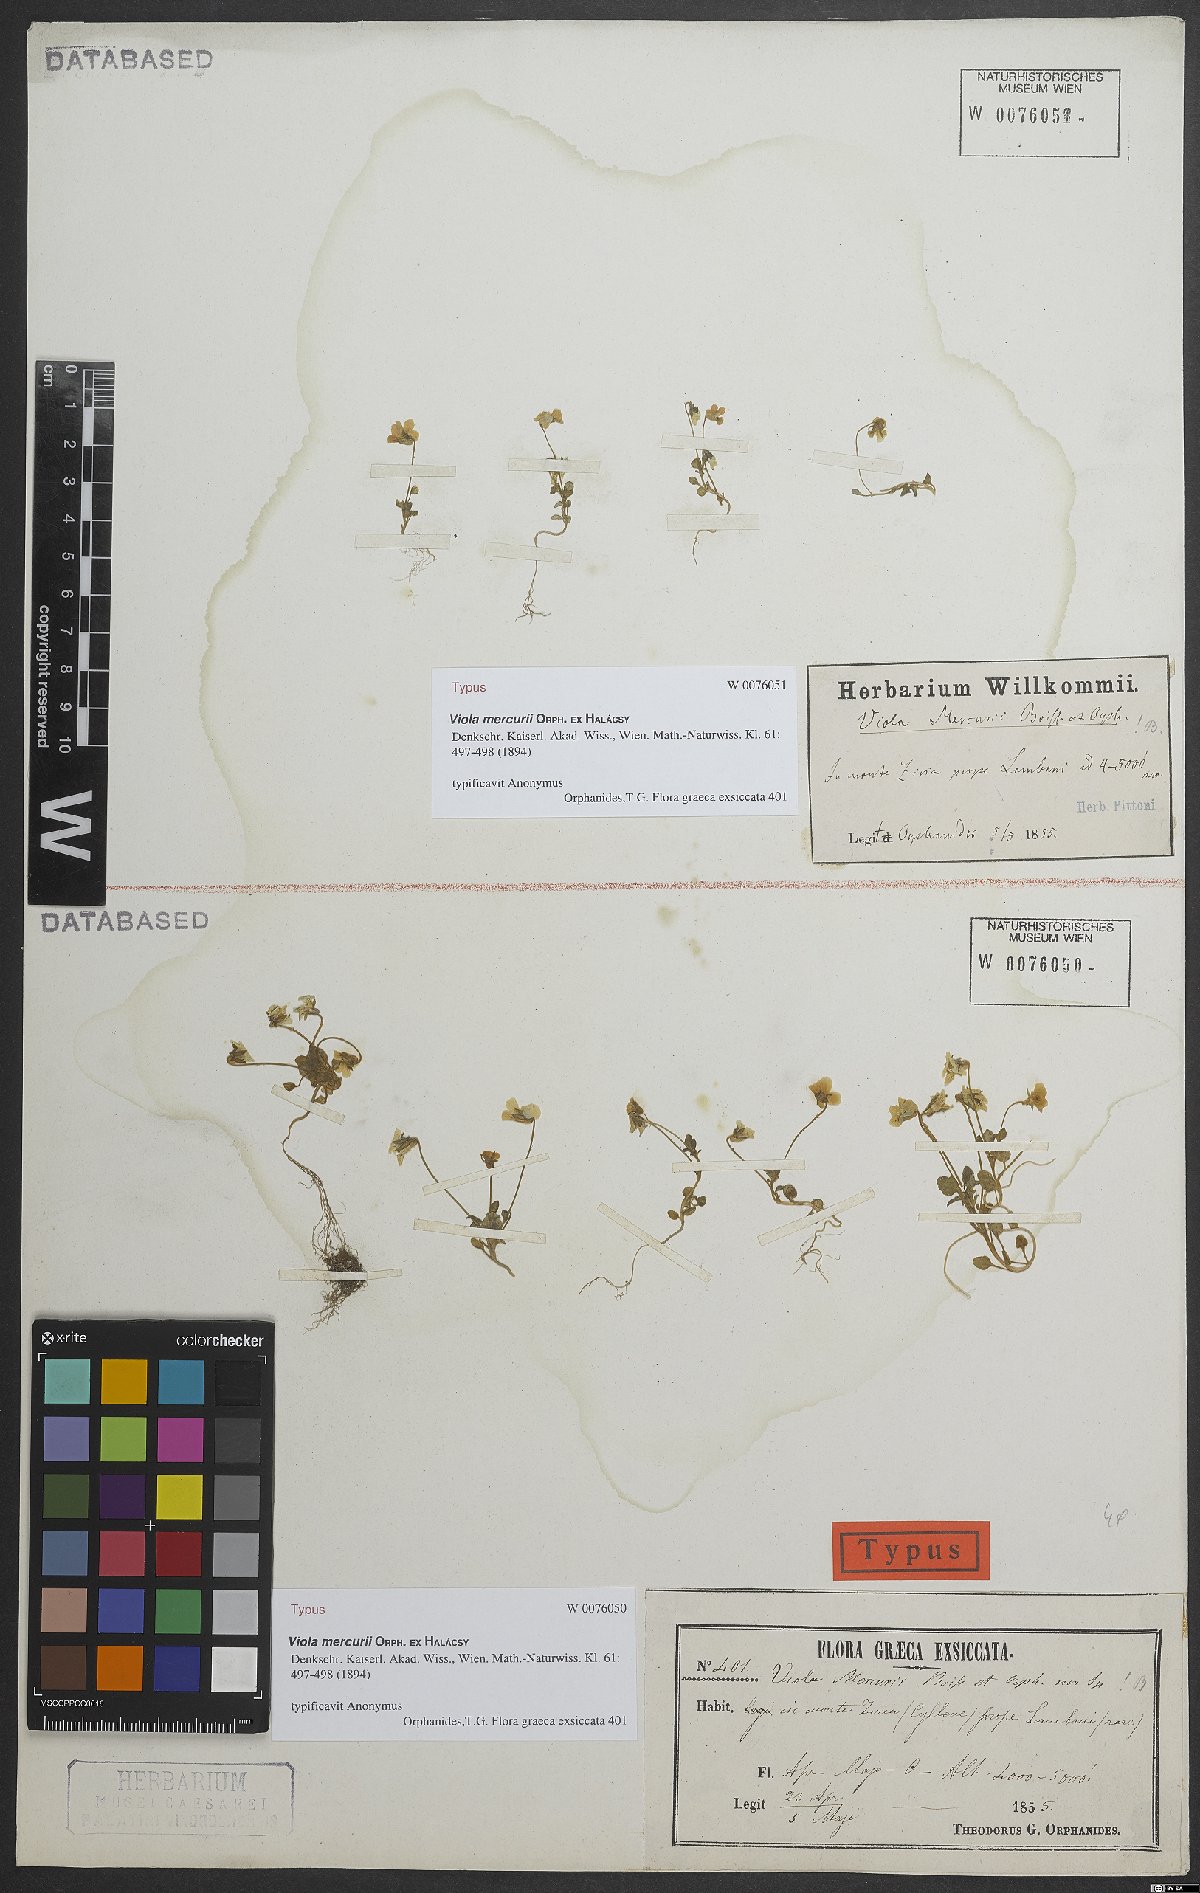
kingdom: Plantae
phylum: Tracheophyta
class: Magnoliopsida
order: Malpighiales
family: Violaceae
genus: Viola
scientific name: Viola mercurii
